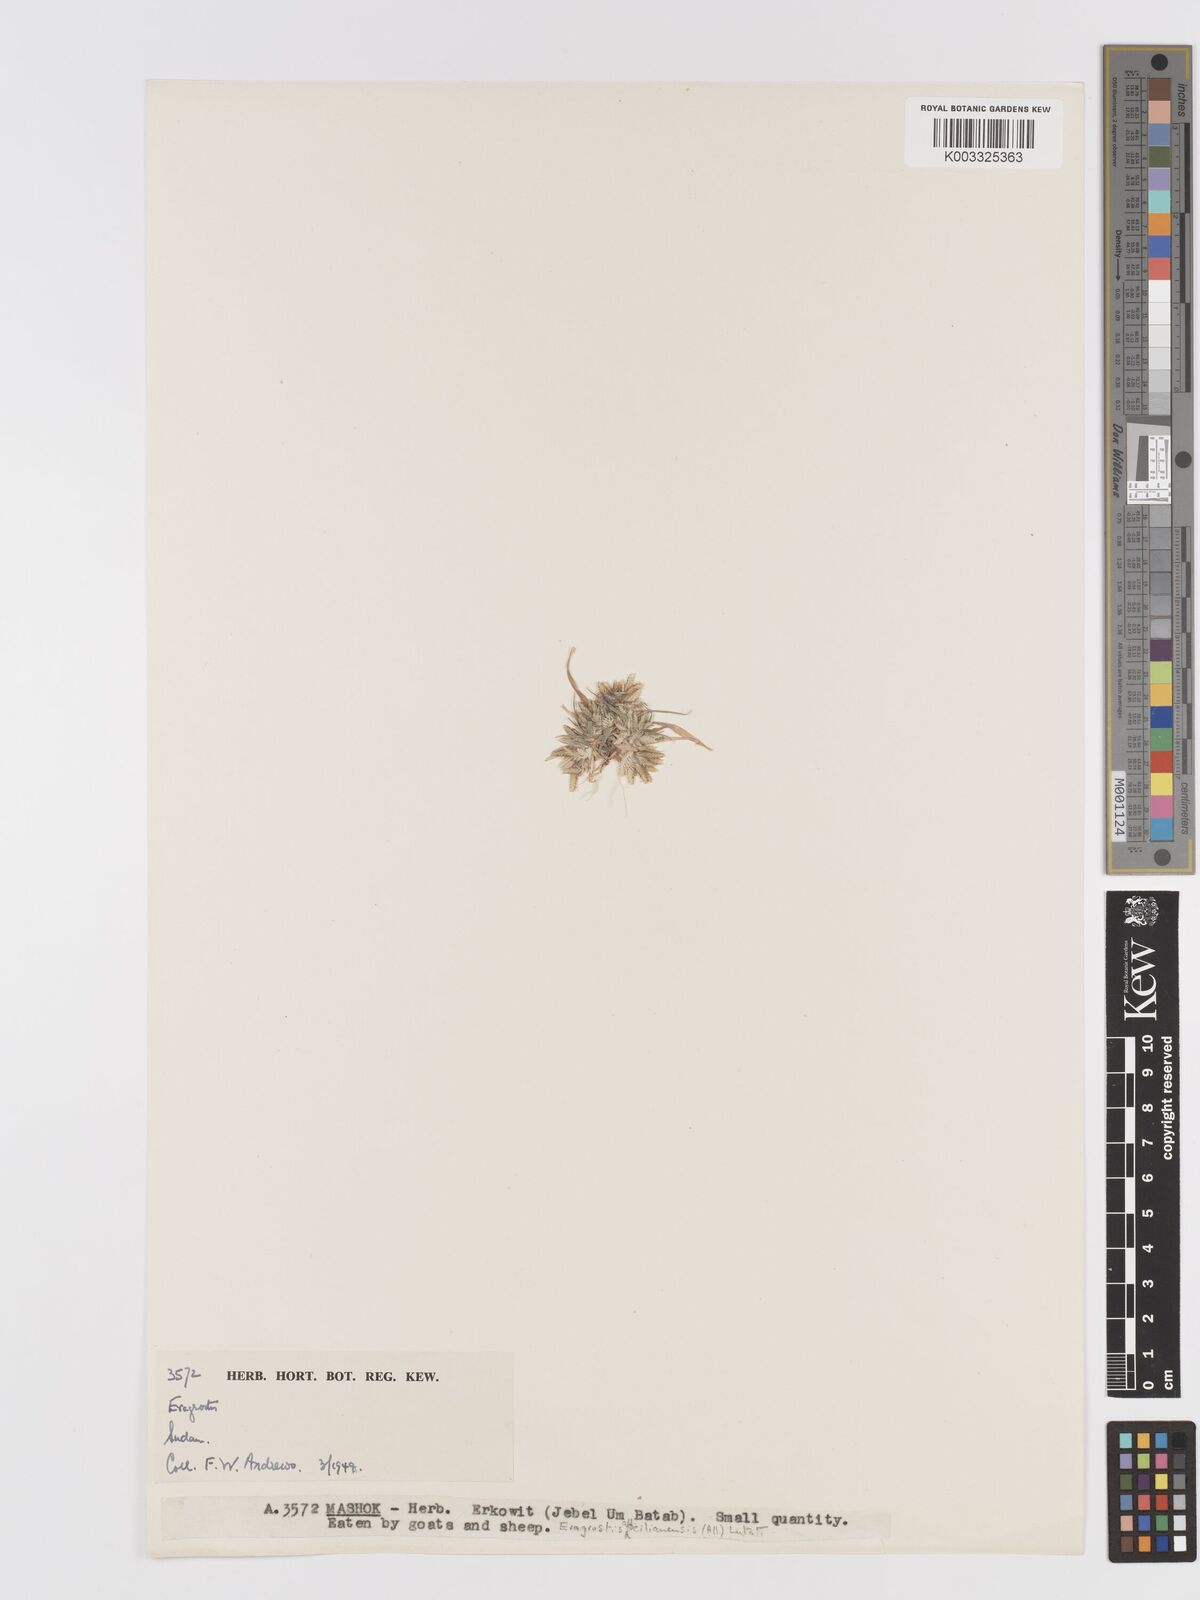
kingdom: Plantae
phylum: Tracheophyta
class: Liliopsida
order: Poales
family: Poaceae
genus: Eragrostis
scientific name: Eragrostis cilianensis
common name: Stinkgrass
